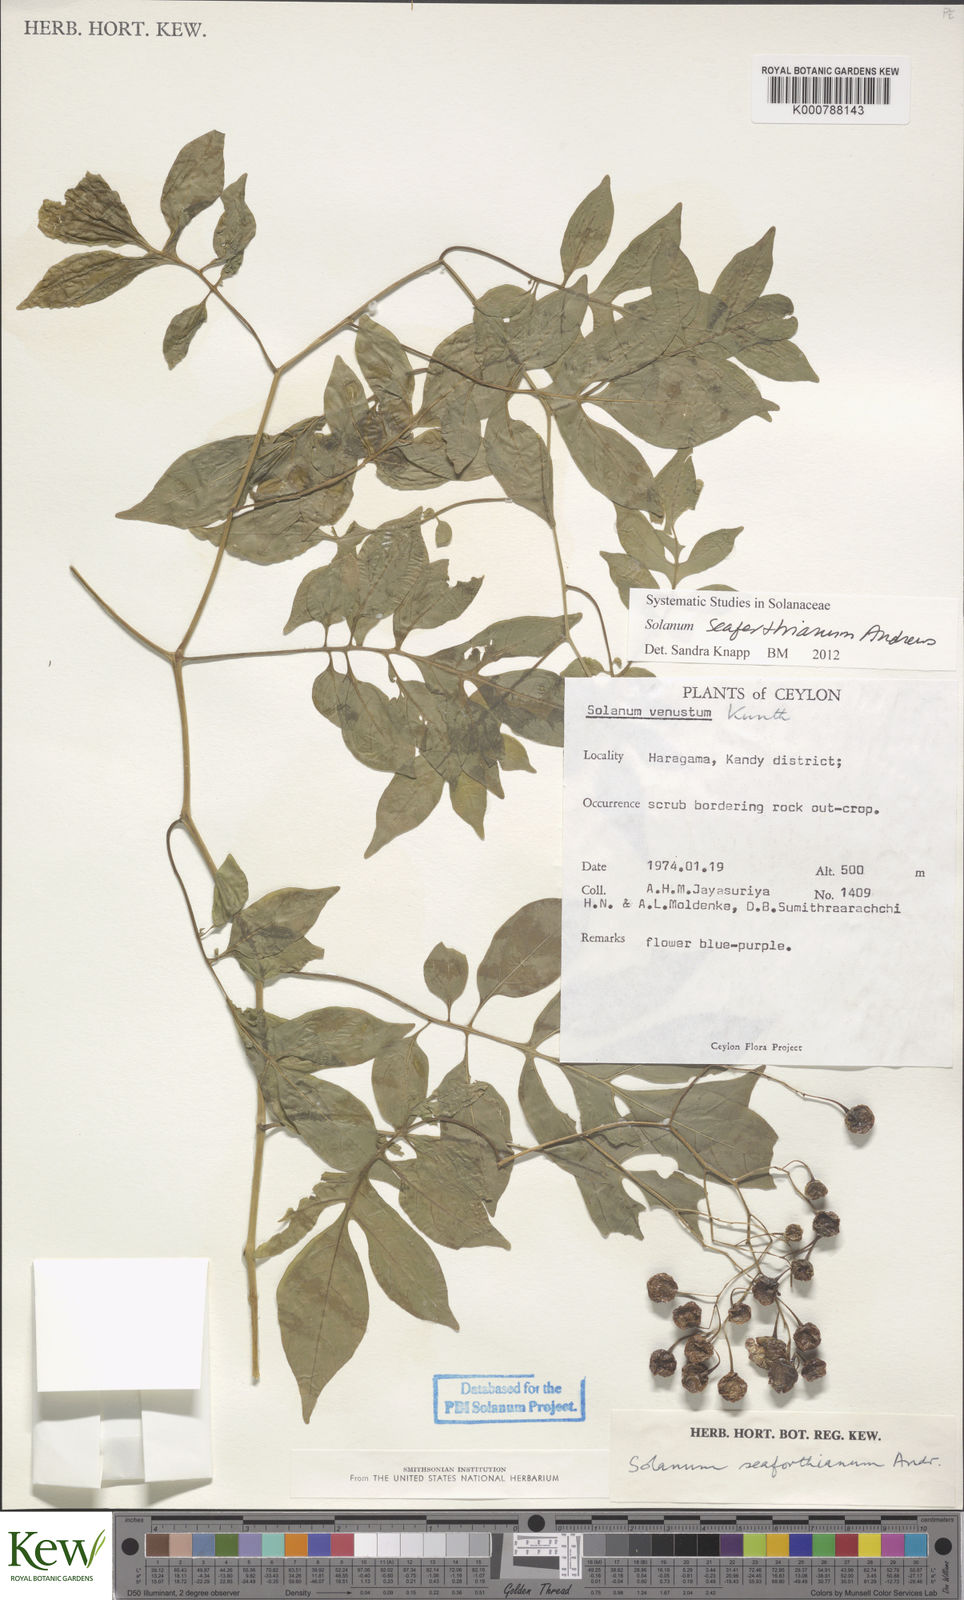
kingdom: Plantae
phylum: Tracheophyta
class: Magnoliopsida
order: Solanales
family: Solanaceae
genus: Solanum
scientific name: Solanum seaforthianum
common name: Brazilian nightshade
